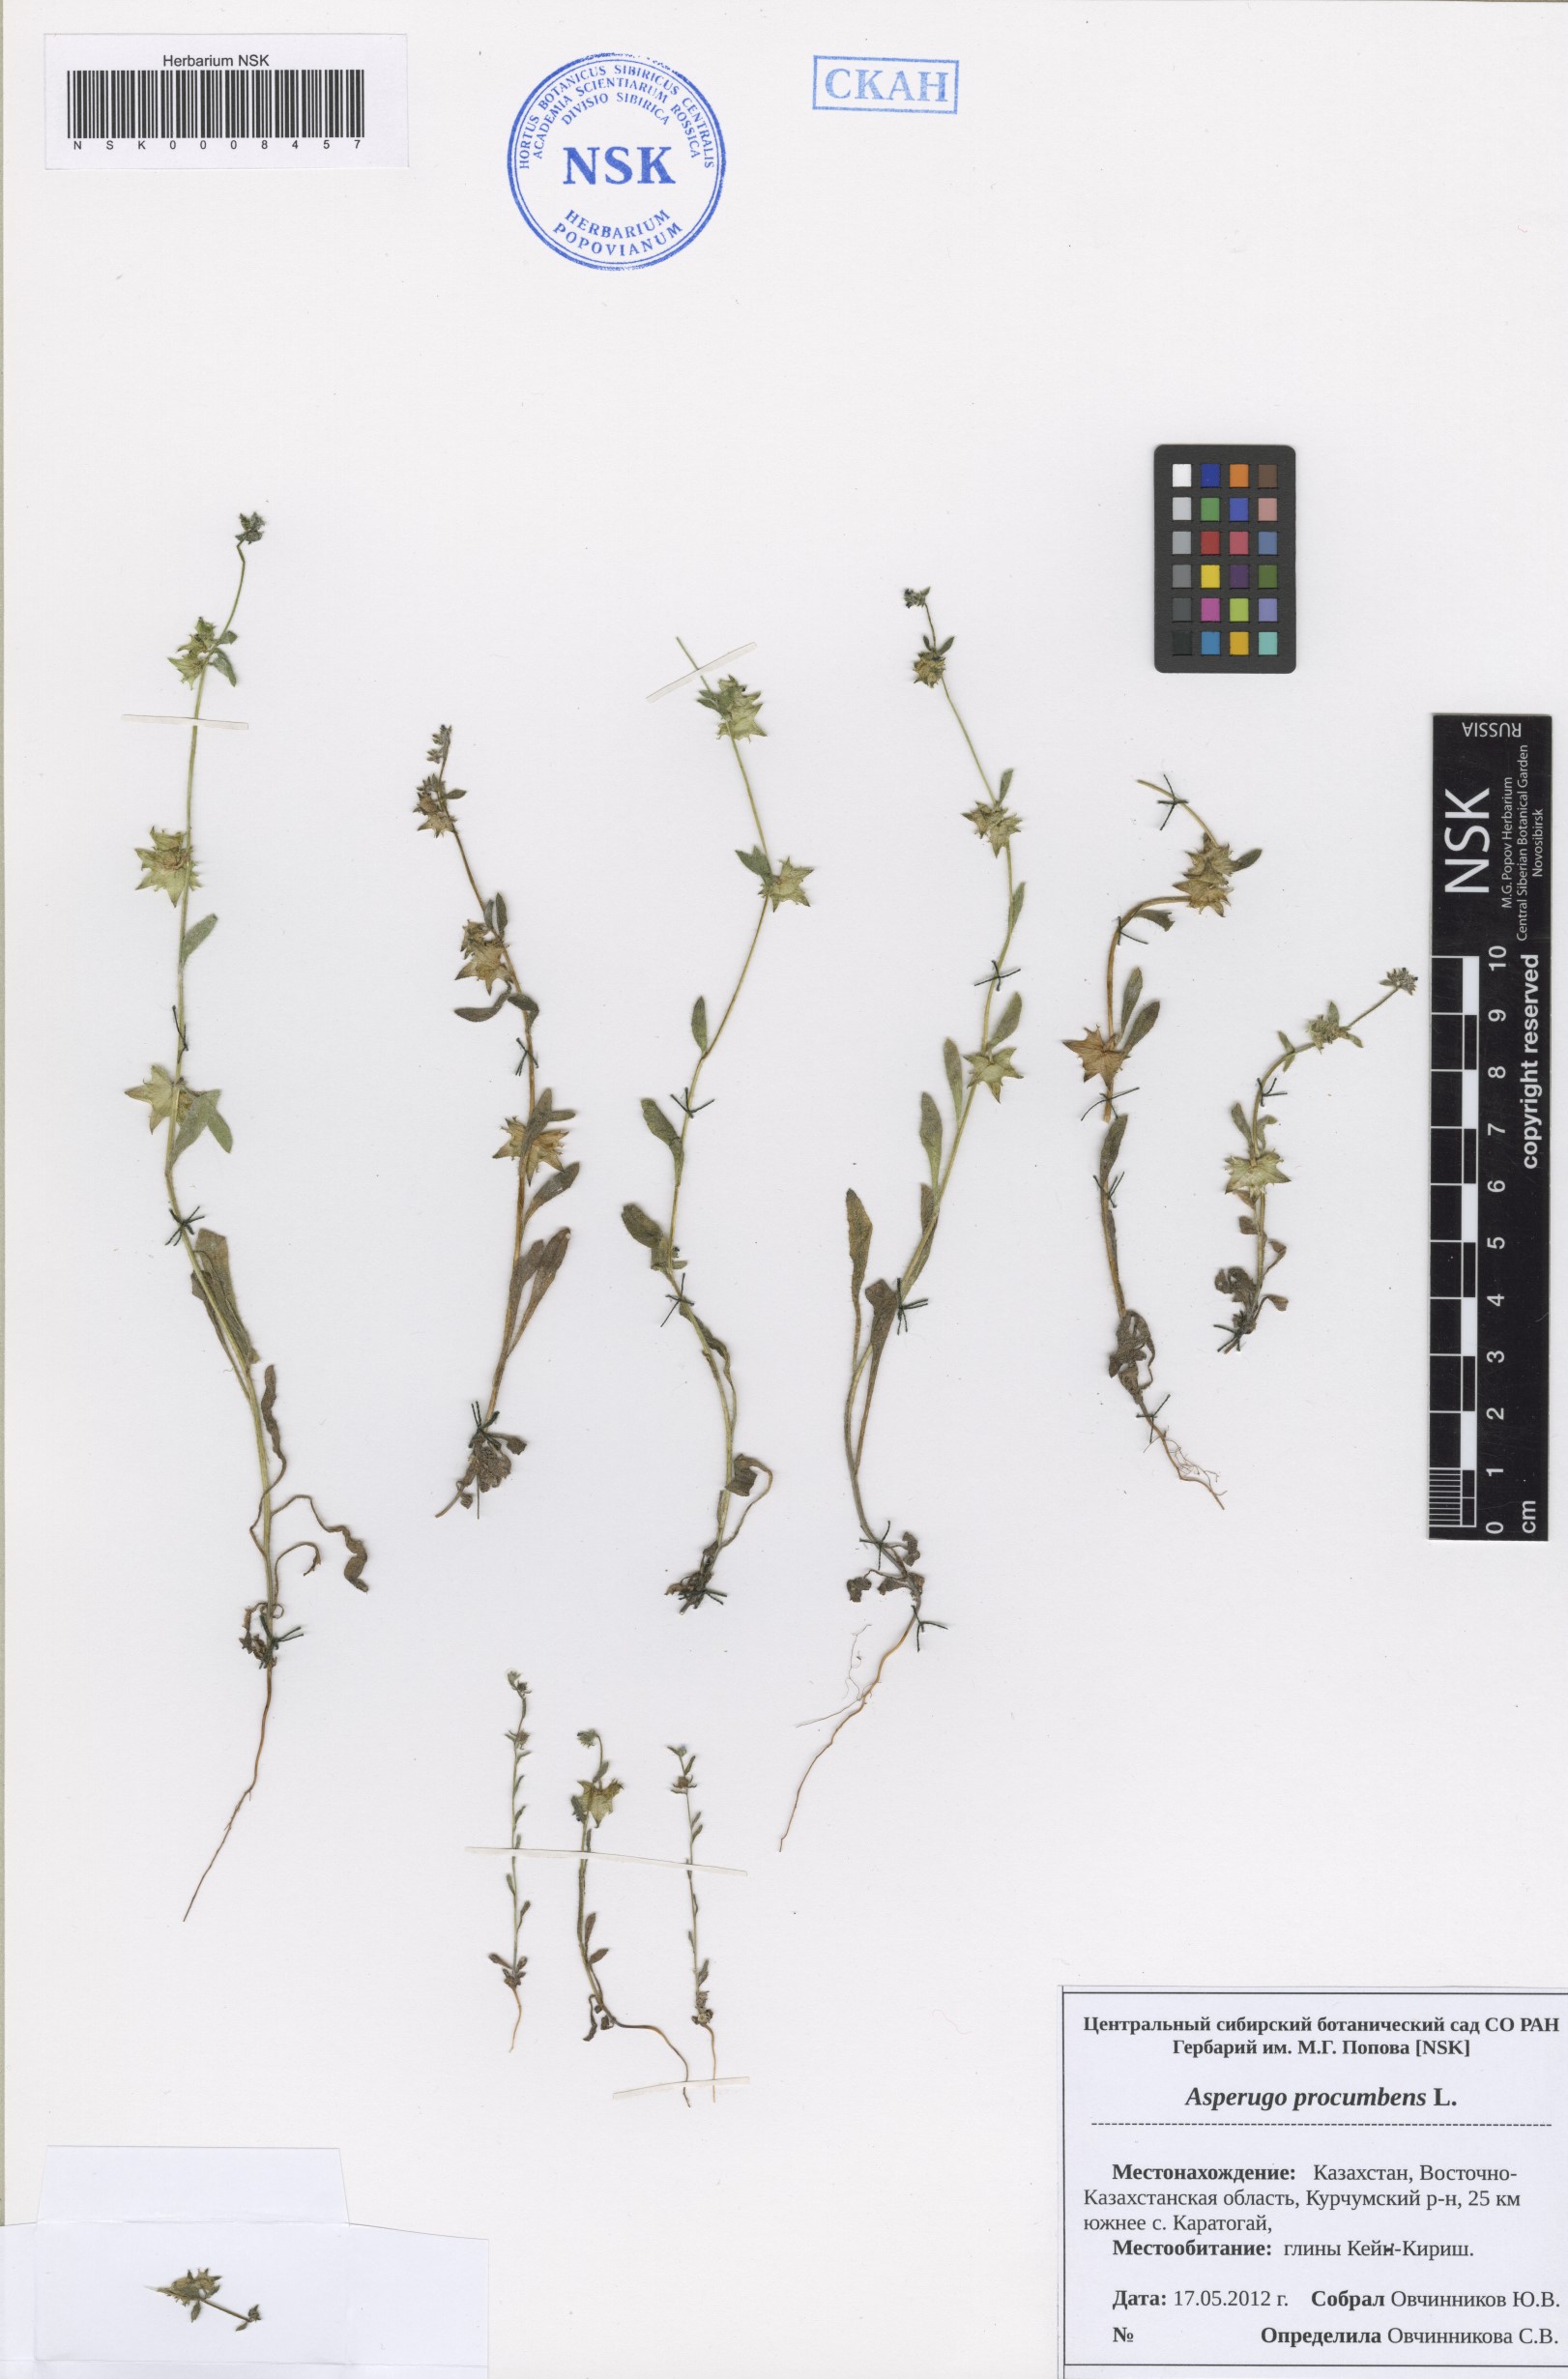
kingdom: Plantae
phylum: Tracheophyta
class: Magnoliopsida
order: Boraginales
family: Boraginaceae
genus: Asperugo
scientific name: Asperugo procumbens
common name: Madwort
